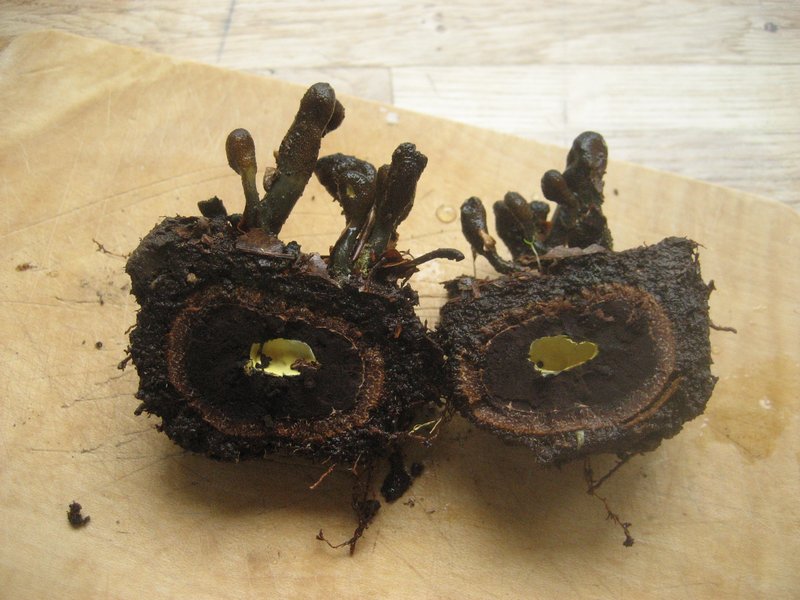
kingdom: Fungi
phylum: Ascomycota
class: Eurotiomycetes
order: Eurotiales
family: Elaphomycetaceae
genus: Elaphomyces
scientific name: Elaphomyces muricatus
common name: vortet hjortetrøffel
